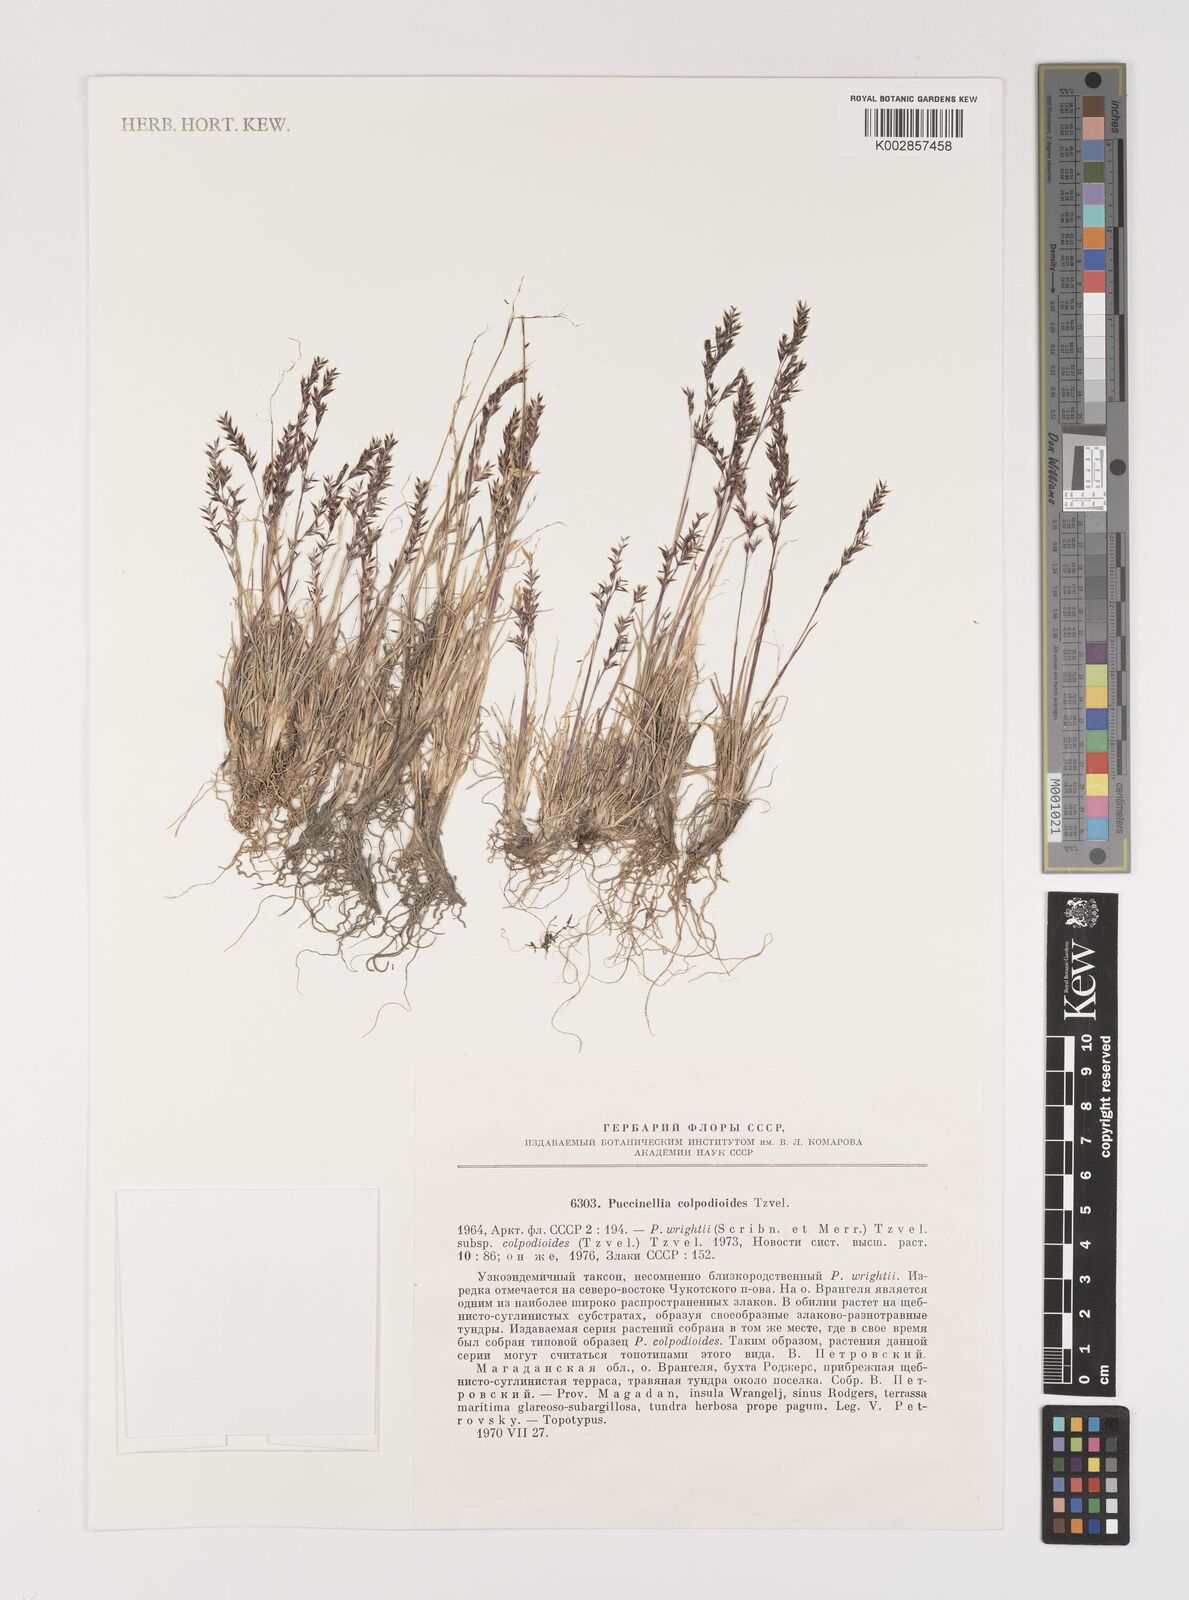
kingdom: Plantae
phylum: Tracheophyta
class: Liliopsida
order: Poales
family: Poaceae
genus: Puccinellia
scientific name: Puccinellia wrightii
